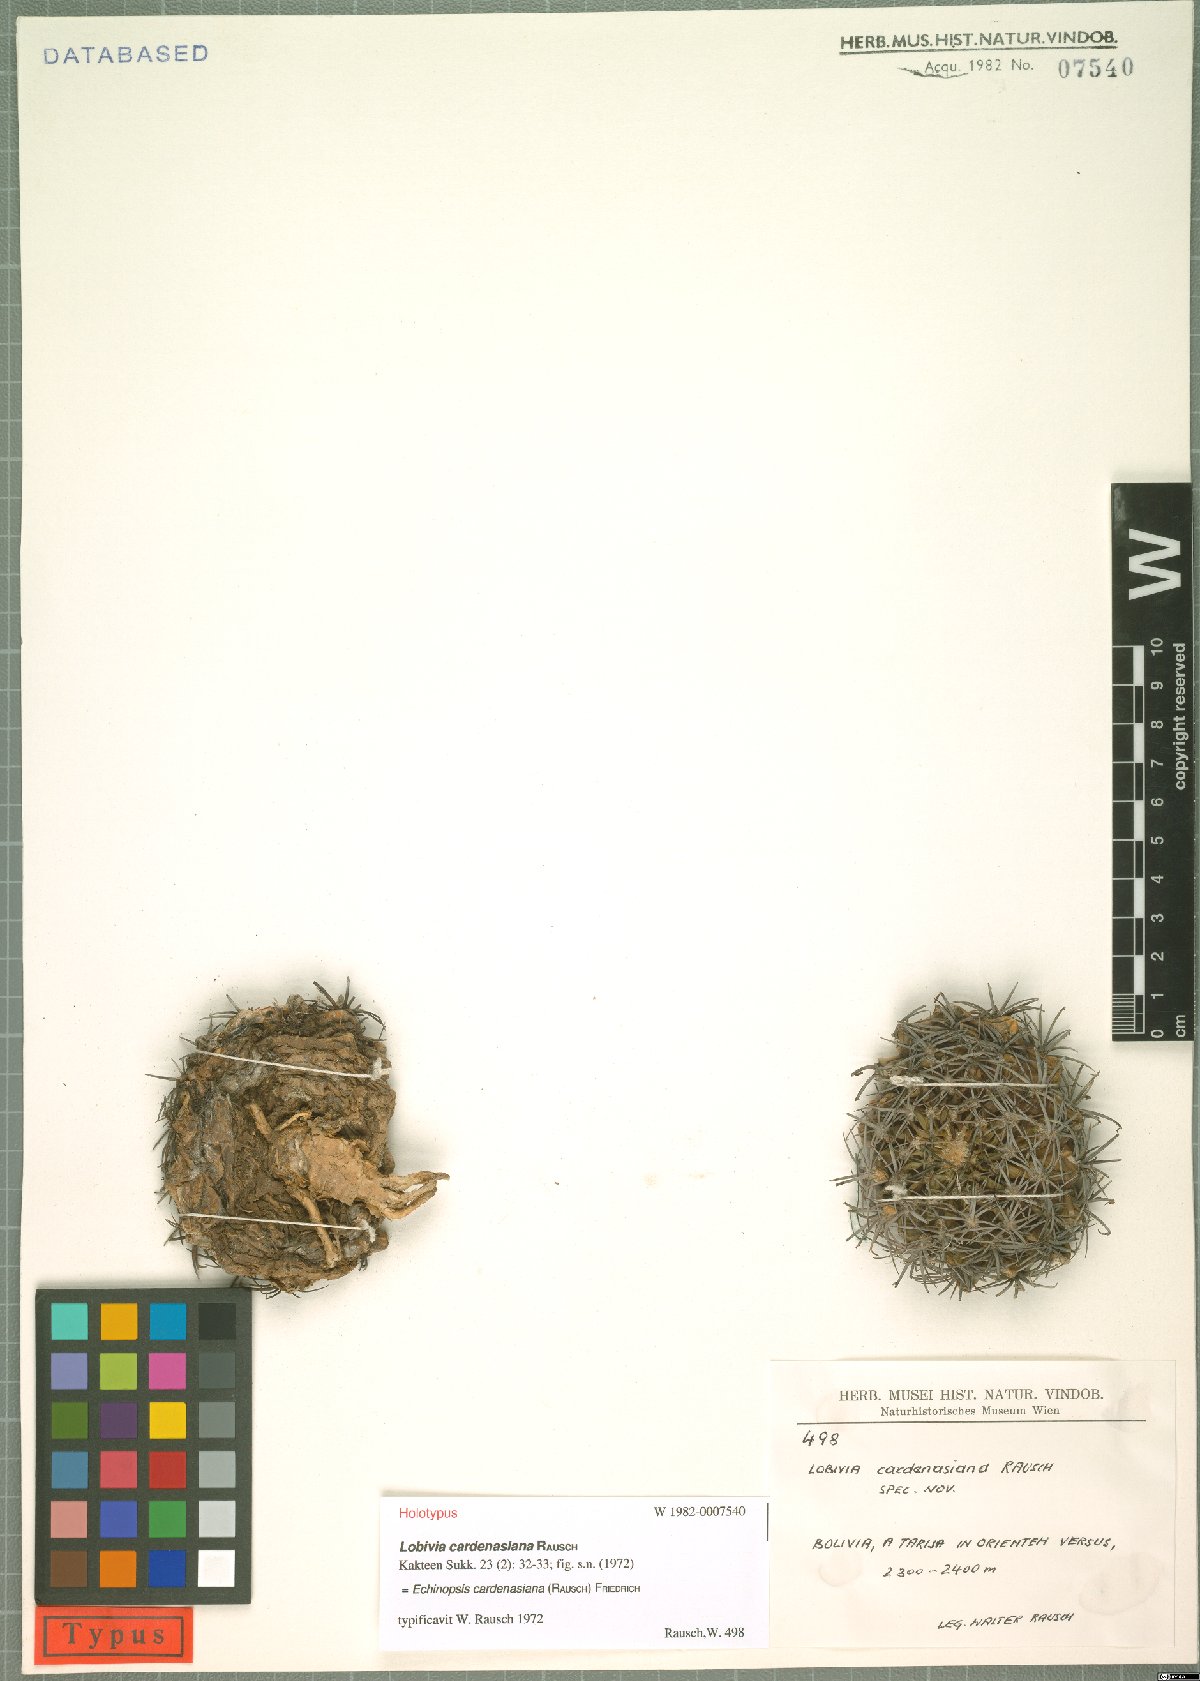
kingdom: Plantae
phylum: Tracheophyta
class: Magnoliopsida
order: Caryophyllales
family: Cactaceae
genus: Lobivia
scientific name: Lobivia cardenasiana
